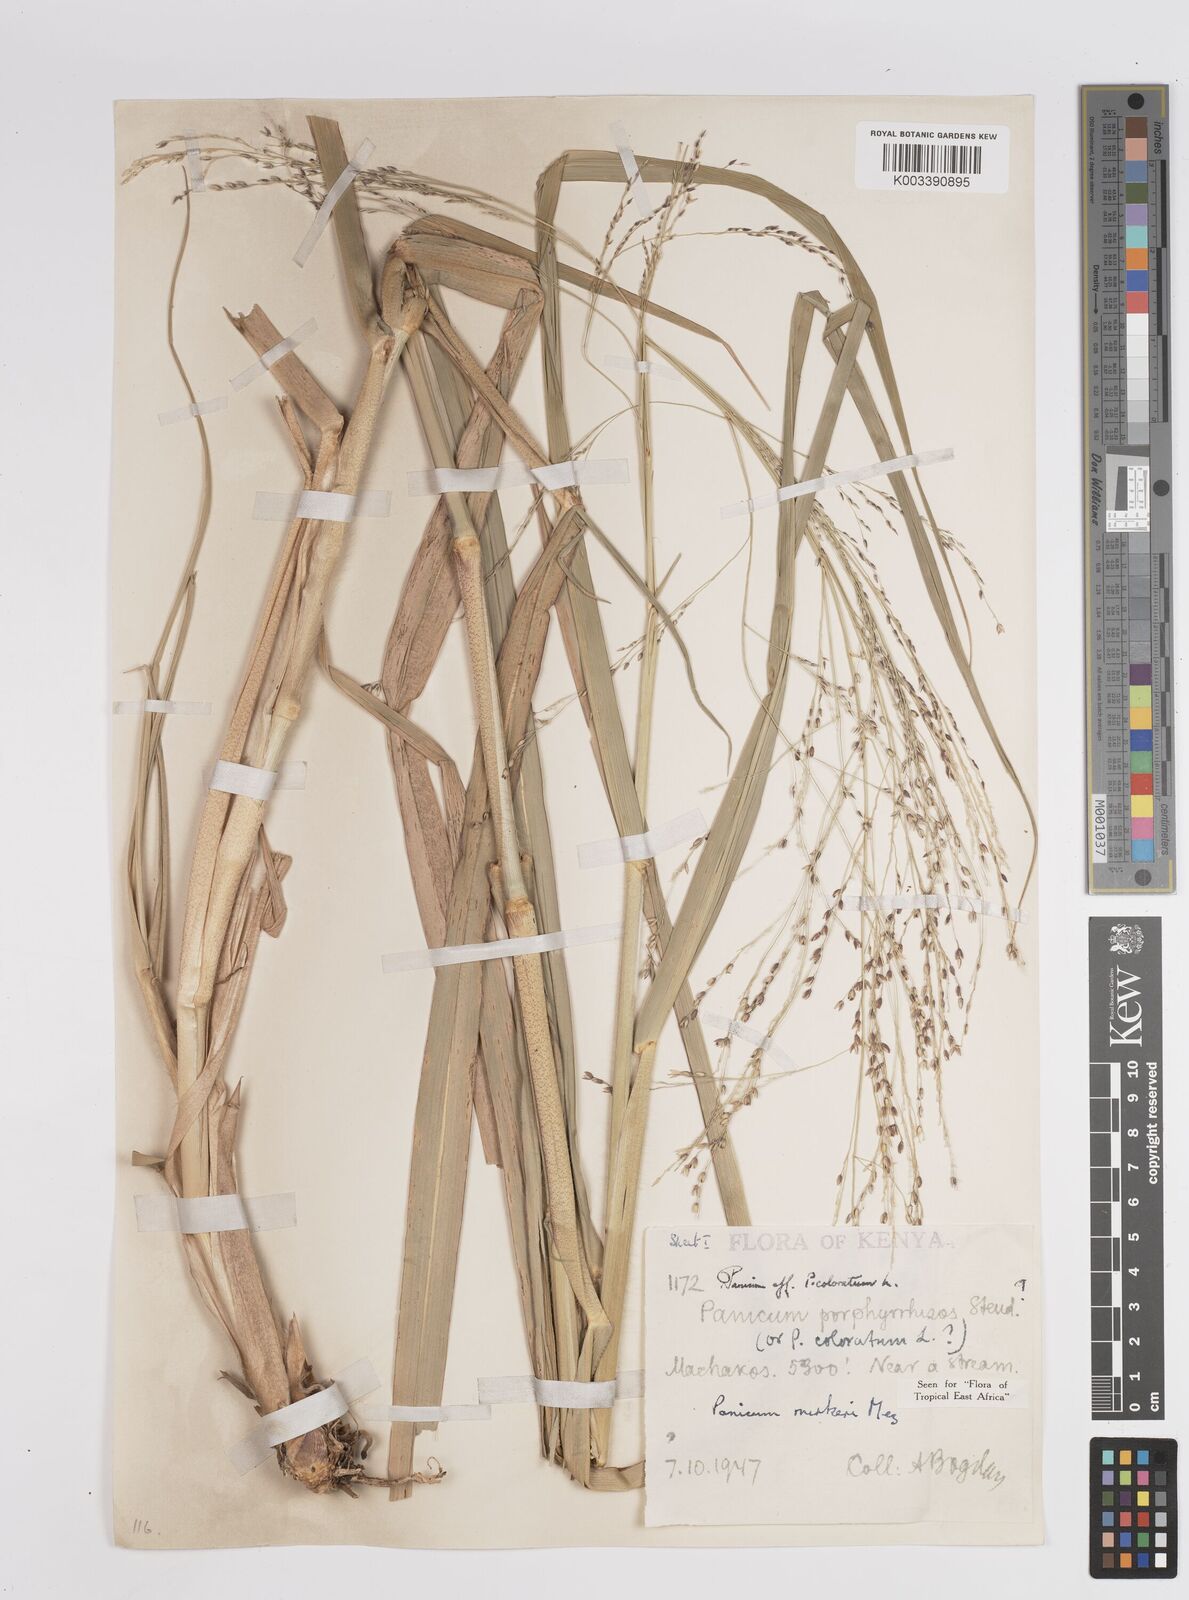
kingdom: Plantae
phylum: Tracheophyta
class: Liliopsida
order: Poales
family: Poaceae
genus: Panicum
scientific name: Panicum merkeri
